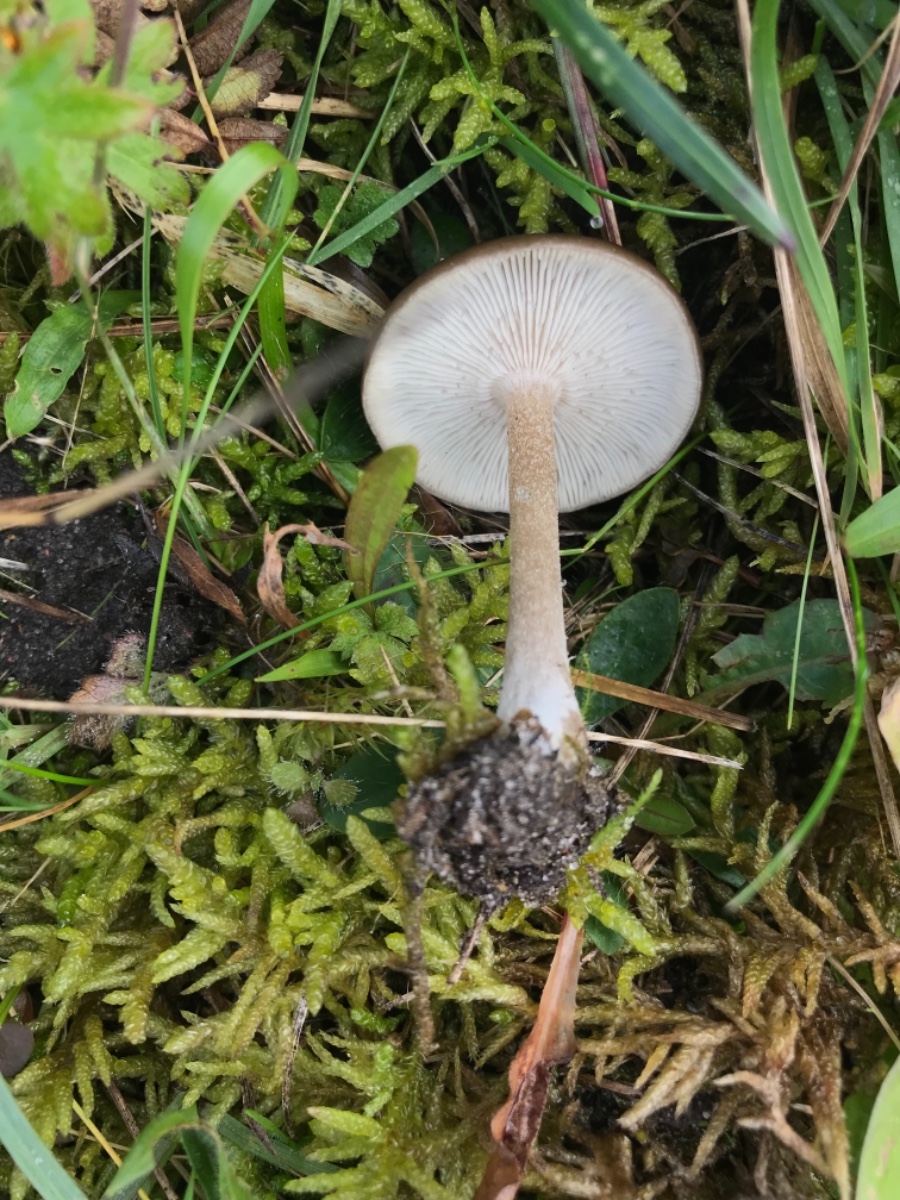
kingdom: Fungi
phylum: Basidiomycota
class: Agaricomycetes
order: Agaricales
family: Tricholomataceae
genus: Melanoleuca
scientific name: Melanoleuca polioleuca
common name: almindelig munkehat
